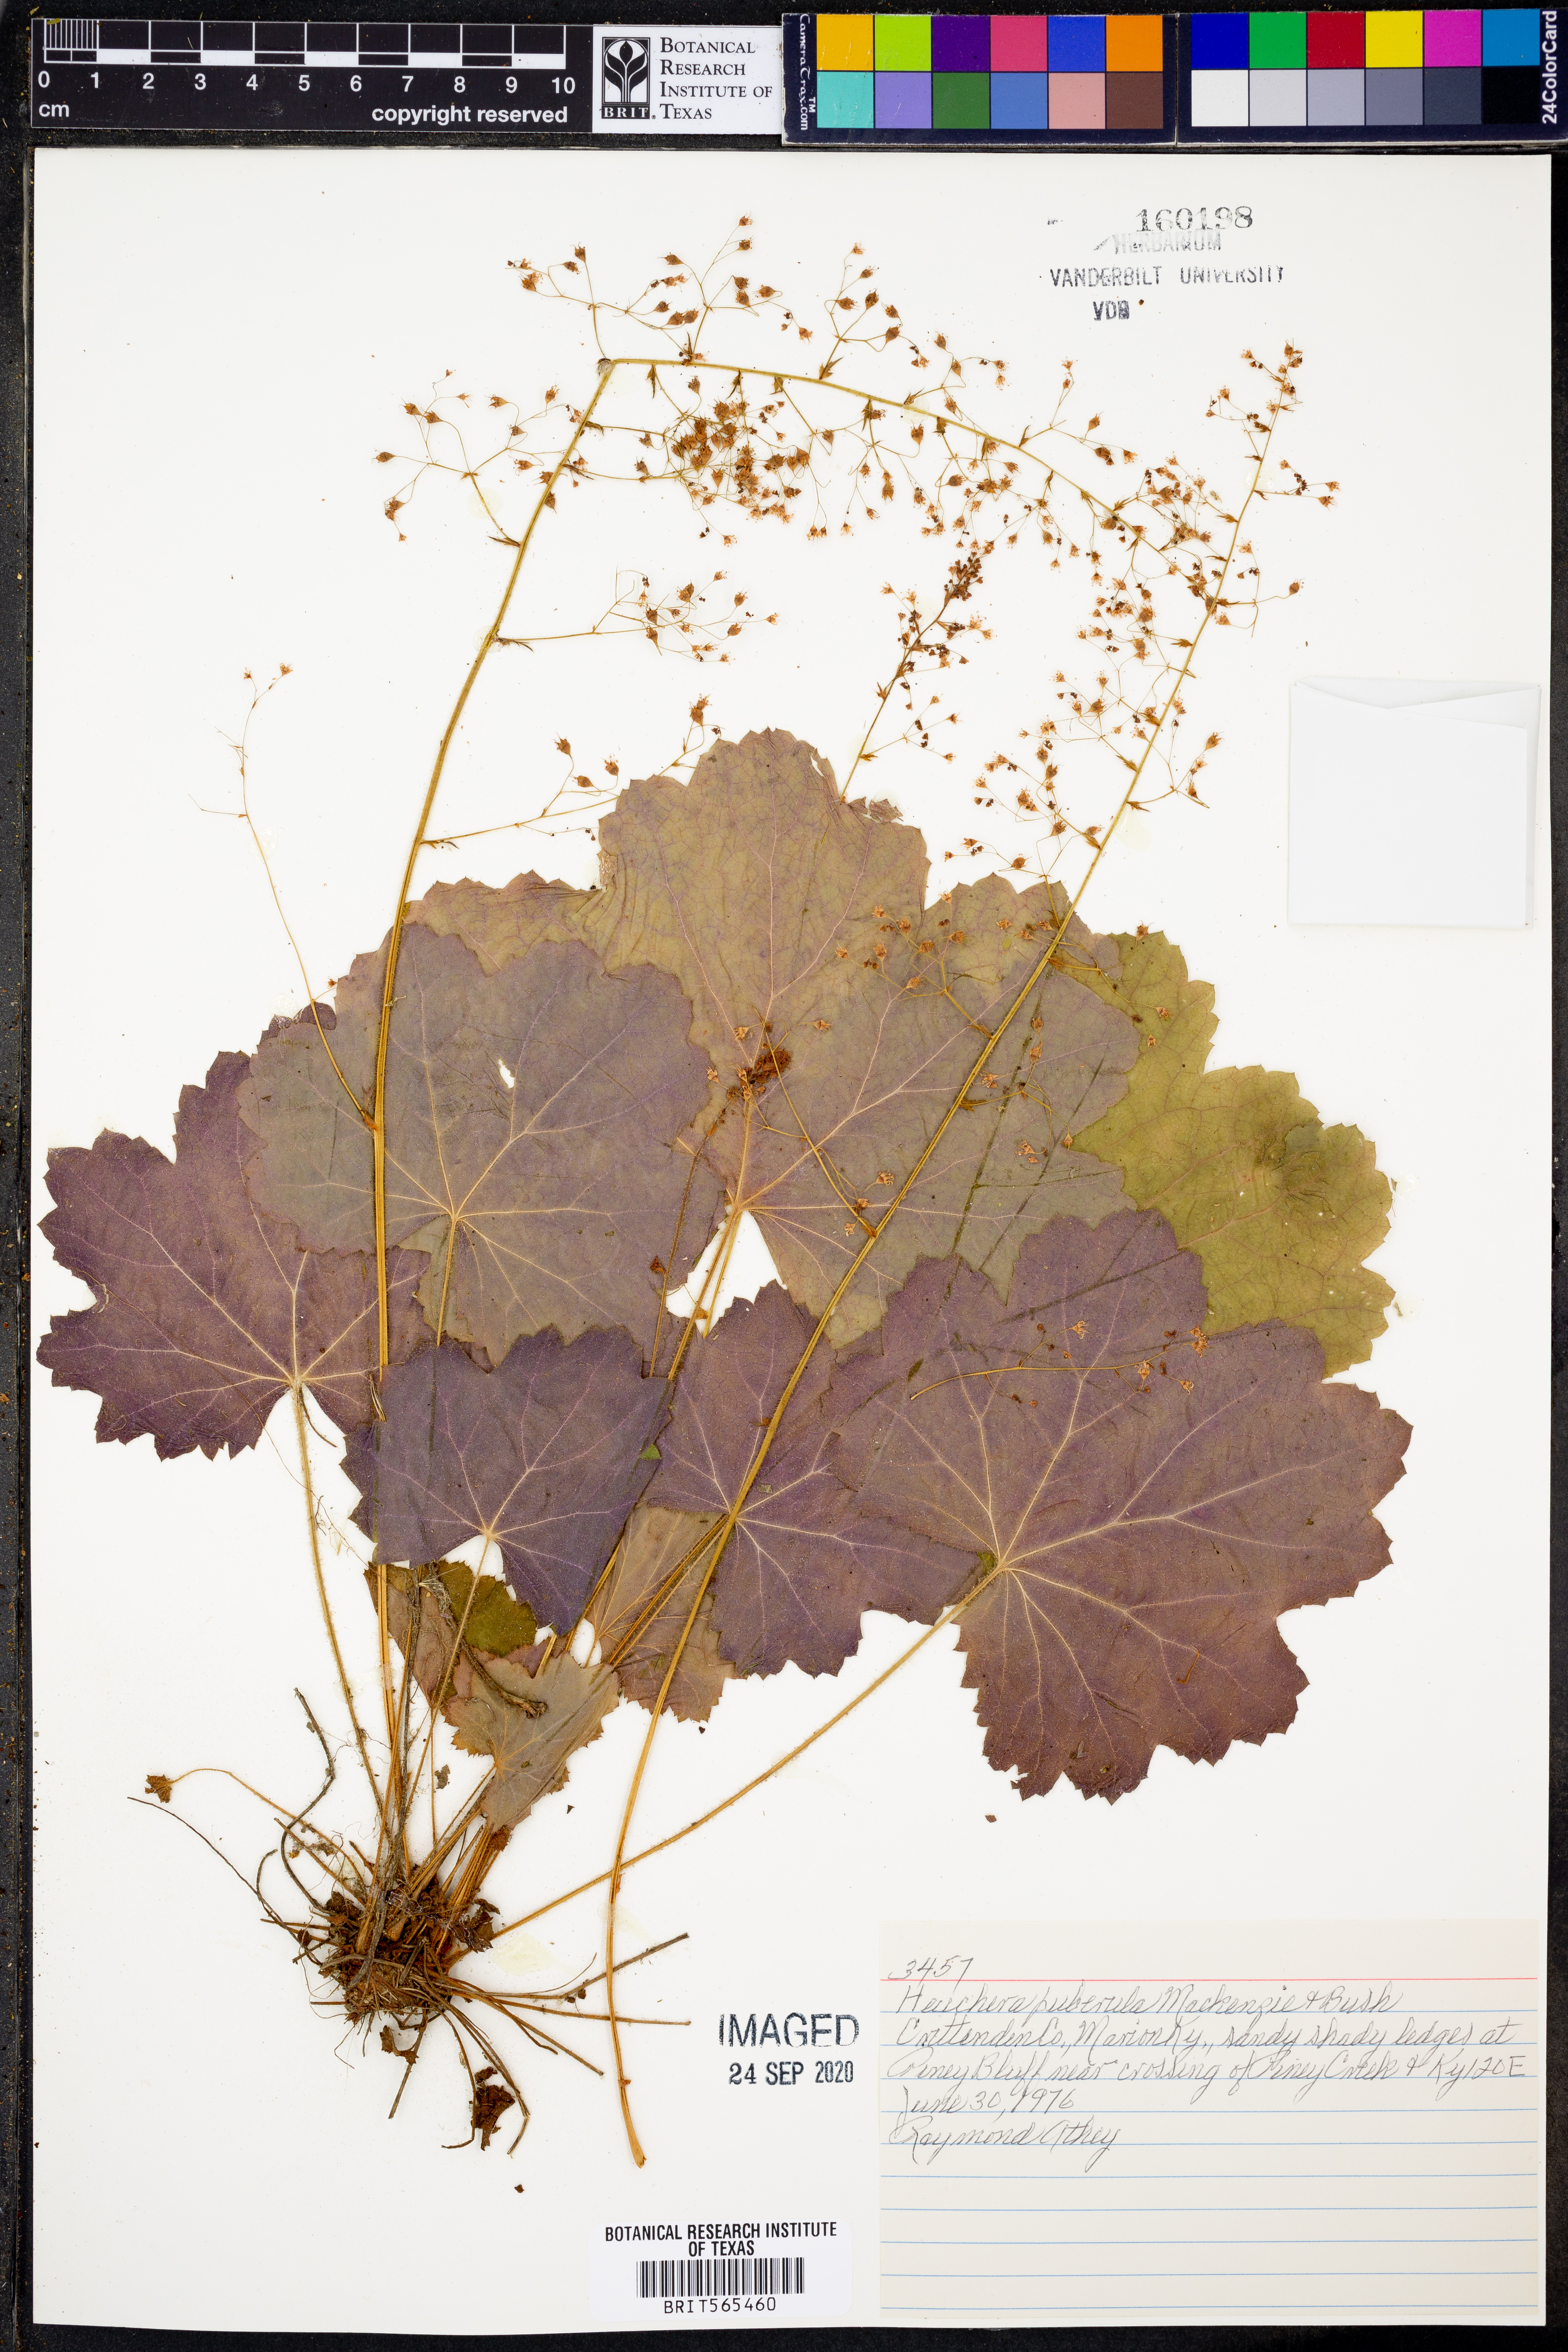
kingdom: Plantae
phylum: Tracheophyta
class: Magnoliopsida
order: Saxifragales
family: Saxifragaceae
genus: Heuchera
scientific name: Heuchera puberula
